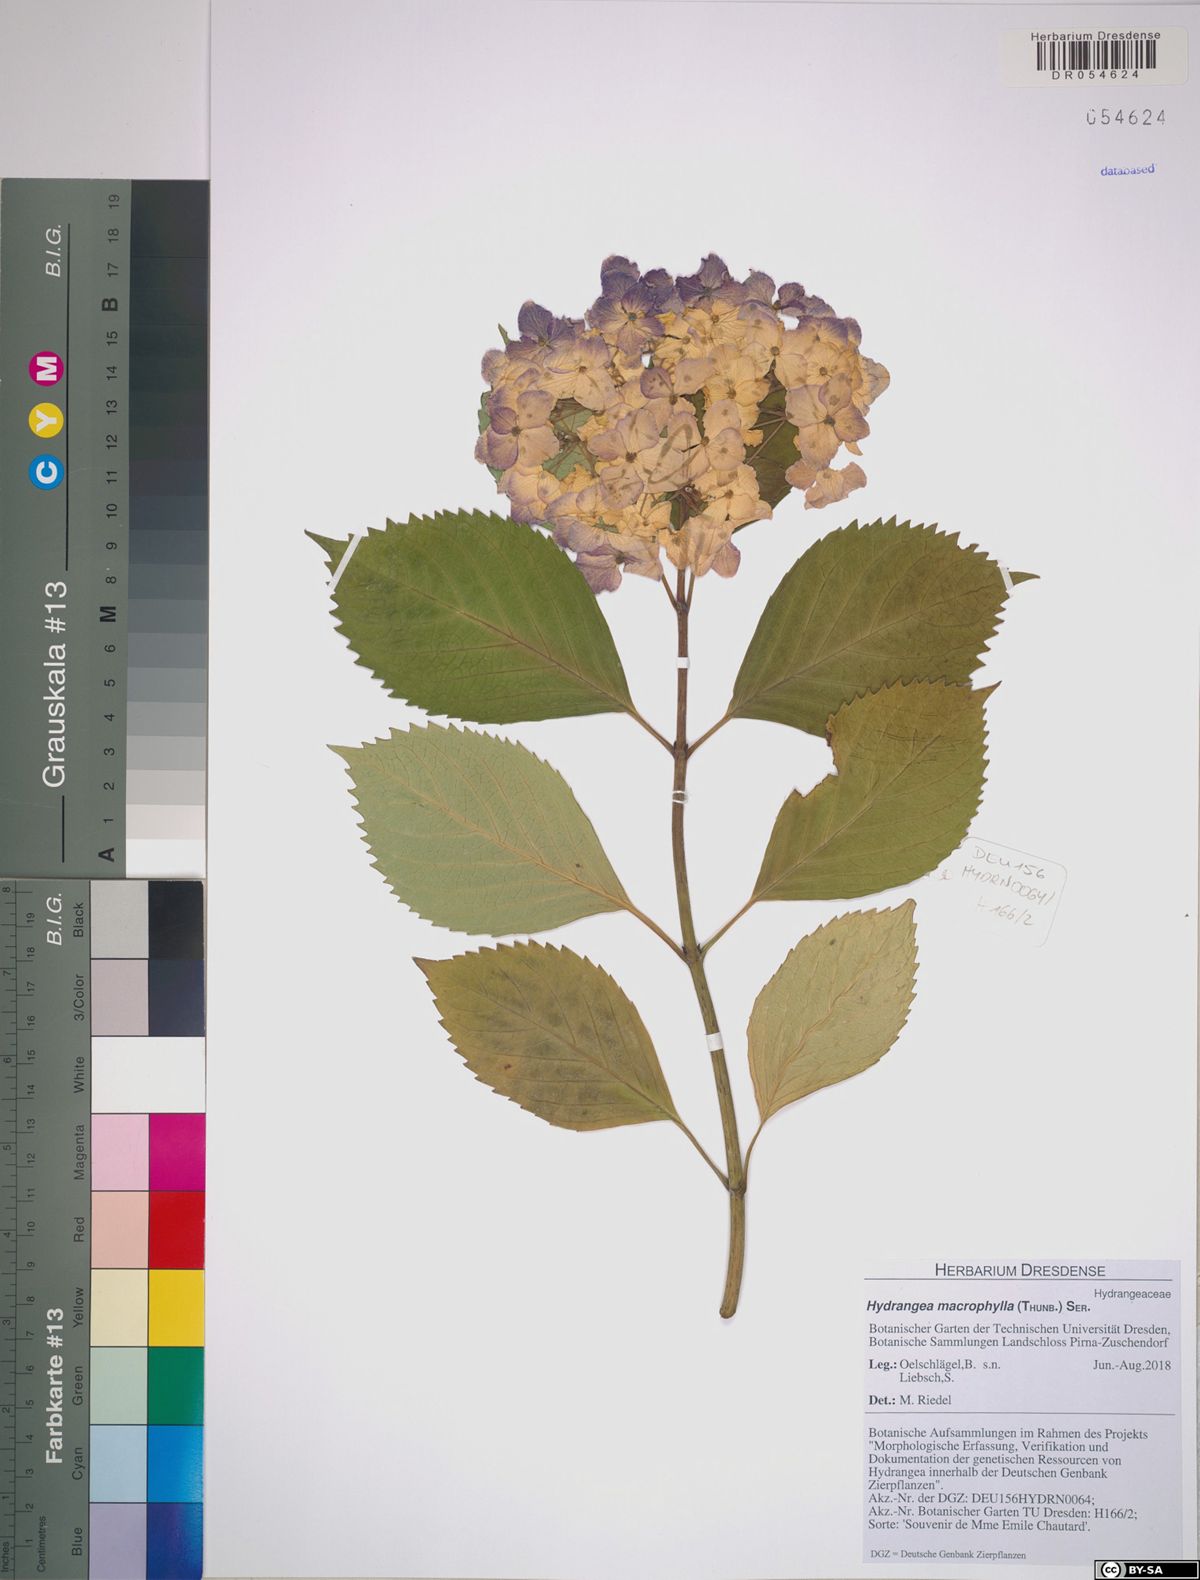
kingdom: Plantae
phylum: Tracheophyta
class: Magnoliopsida
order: Cornales
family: Hydrangeaceae
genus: Hydrangea
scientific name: Hydrangea macrophylla
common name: Hydrangea
